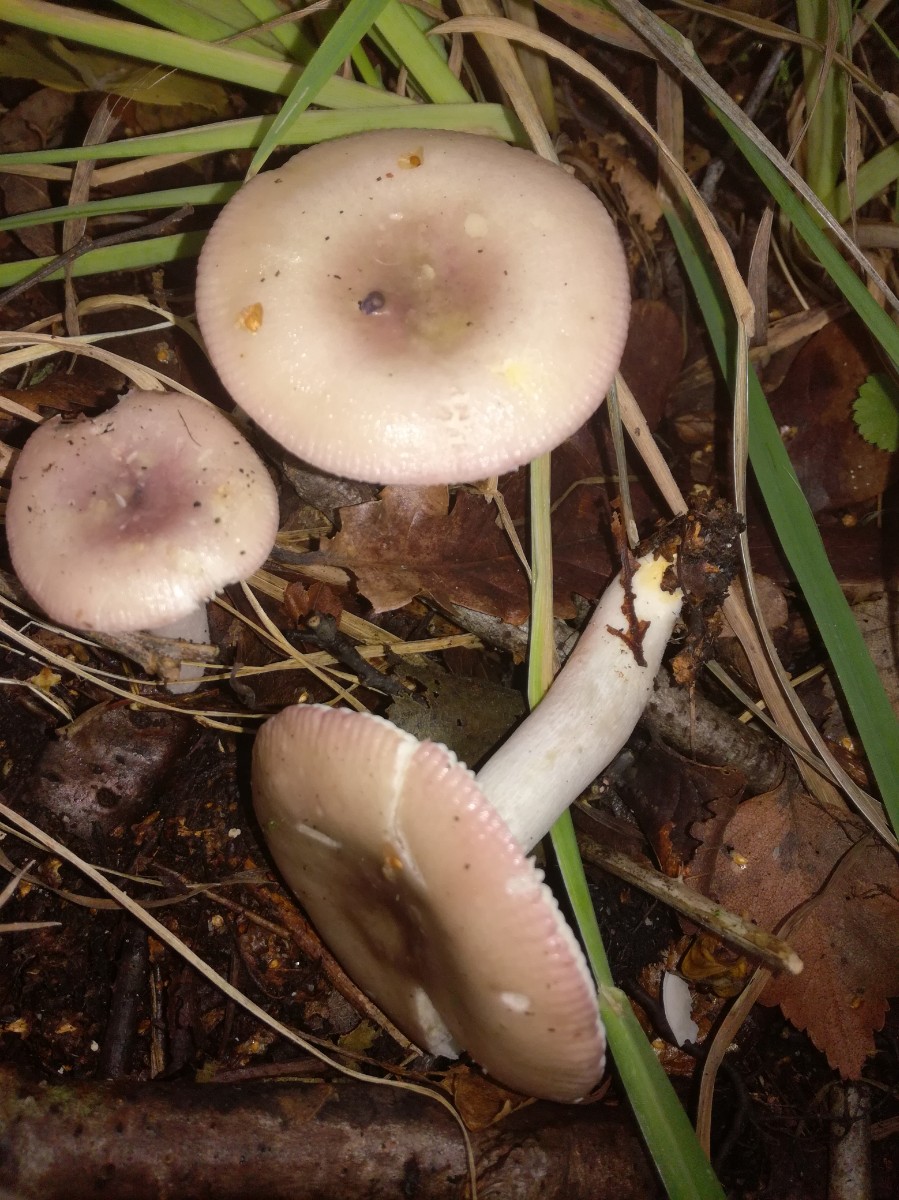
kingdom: Fungi
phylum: Basidiomycota
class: Agaricomycetes
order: Russulales
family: Russulaceae
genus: Russula
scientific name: Russula betularum
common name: bleg gift-skørhat
